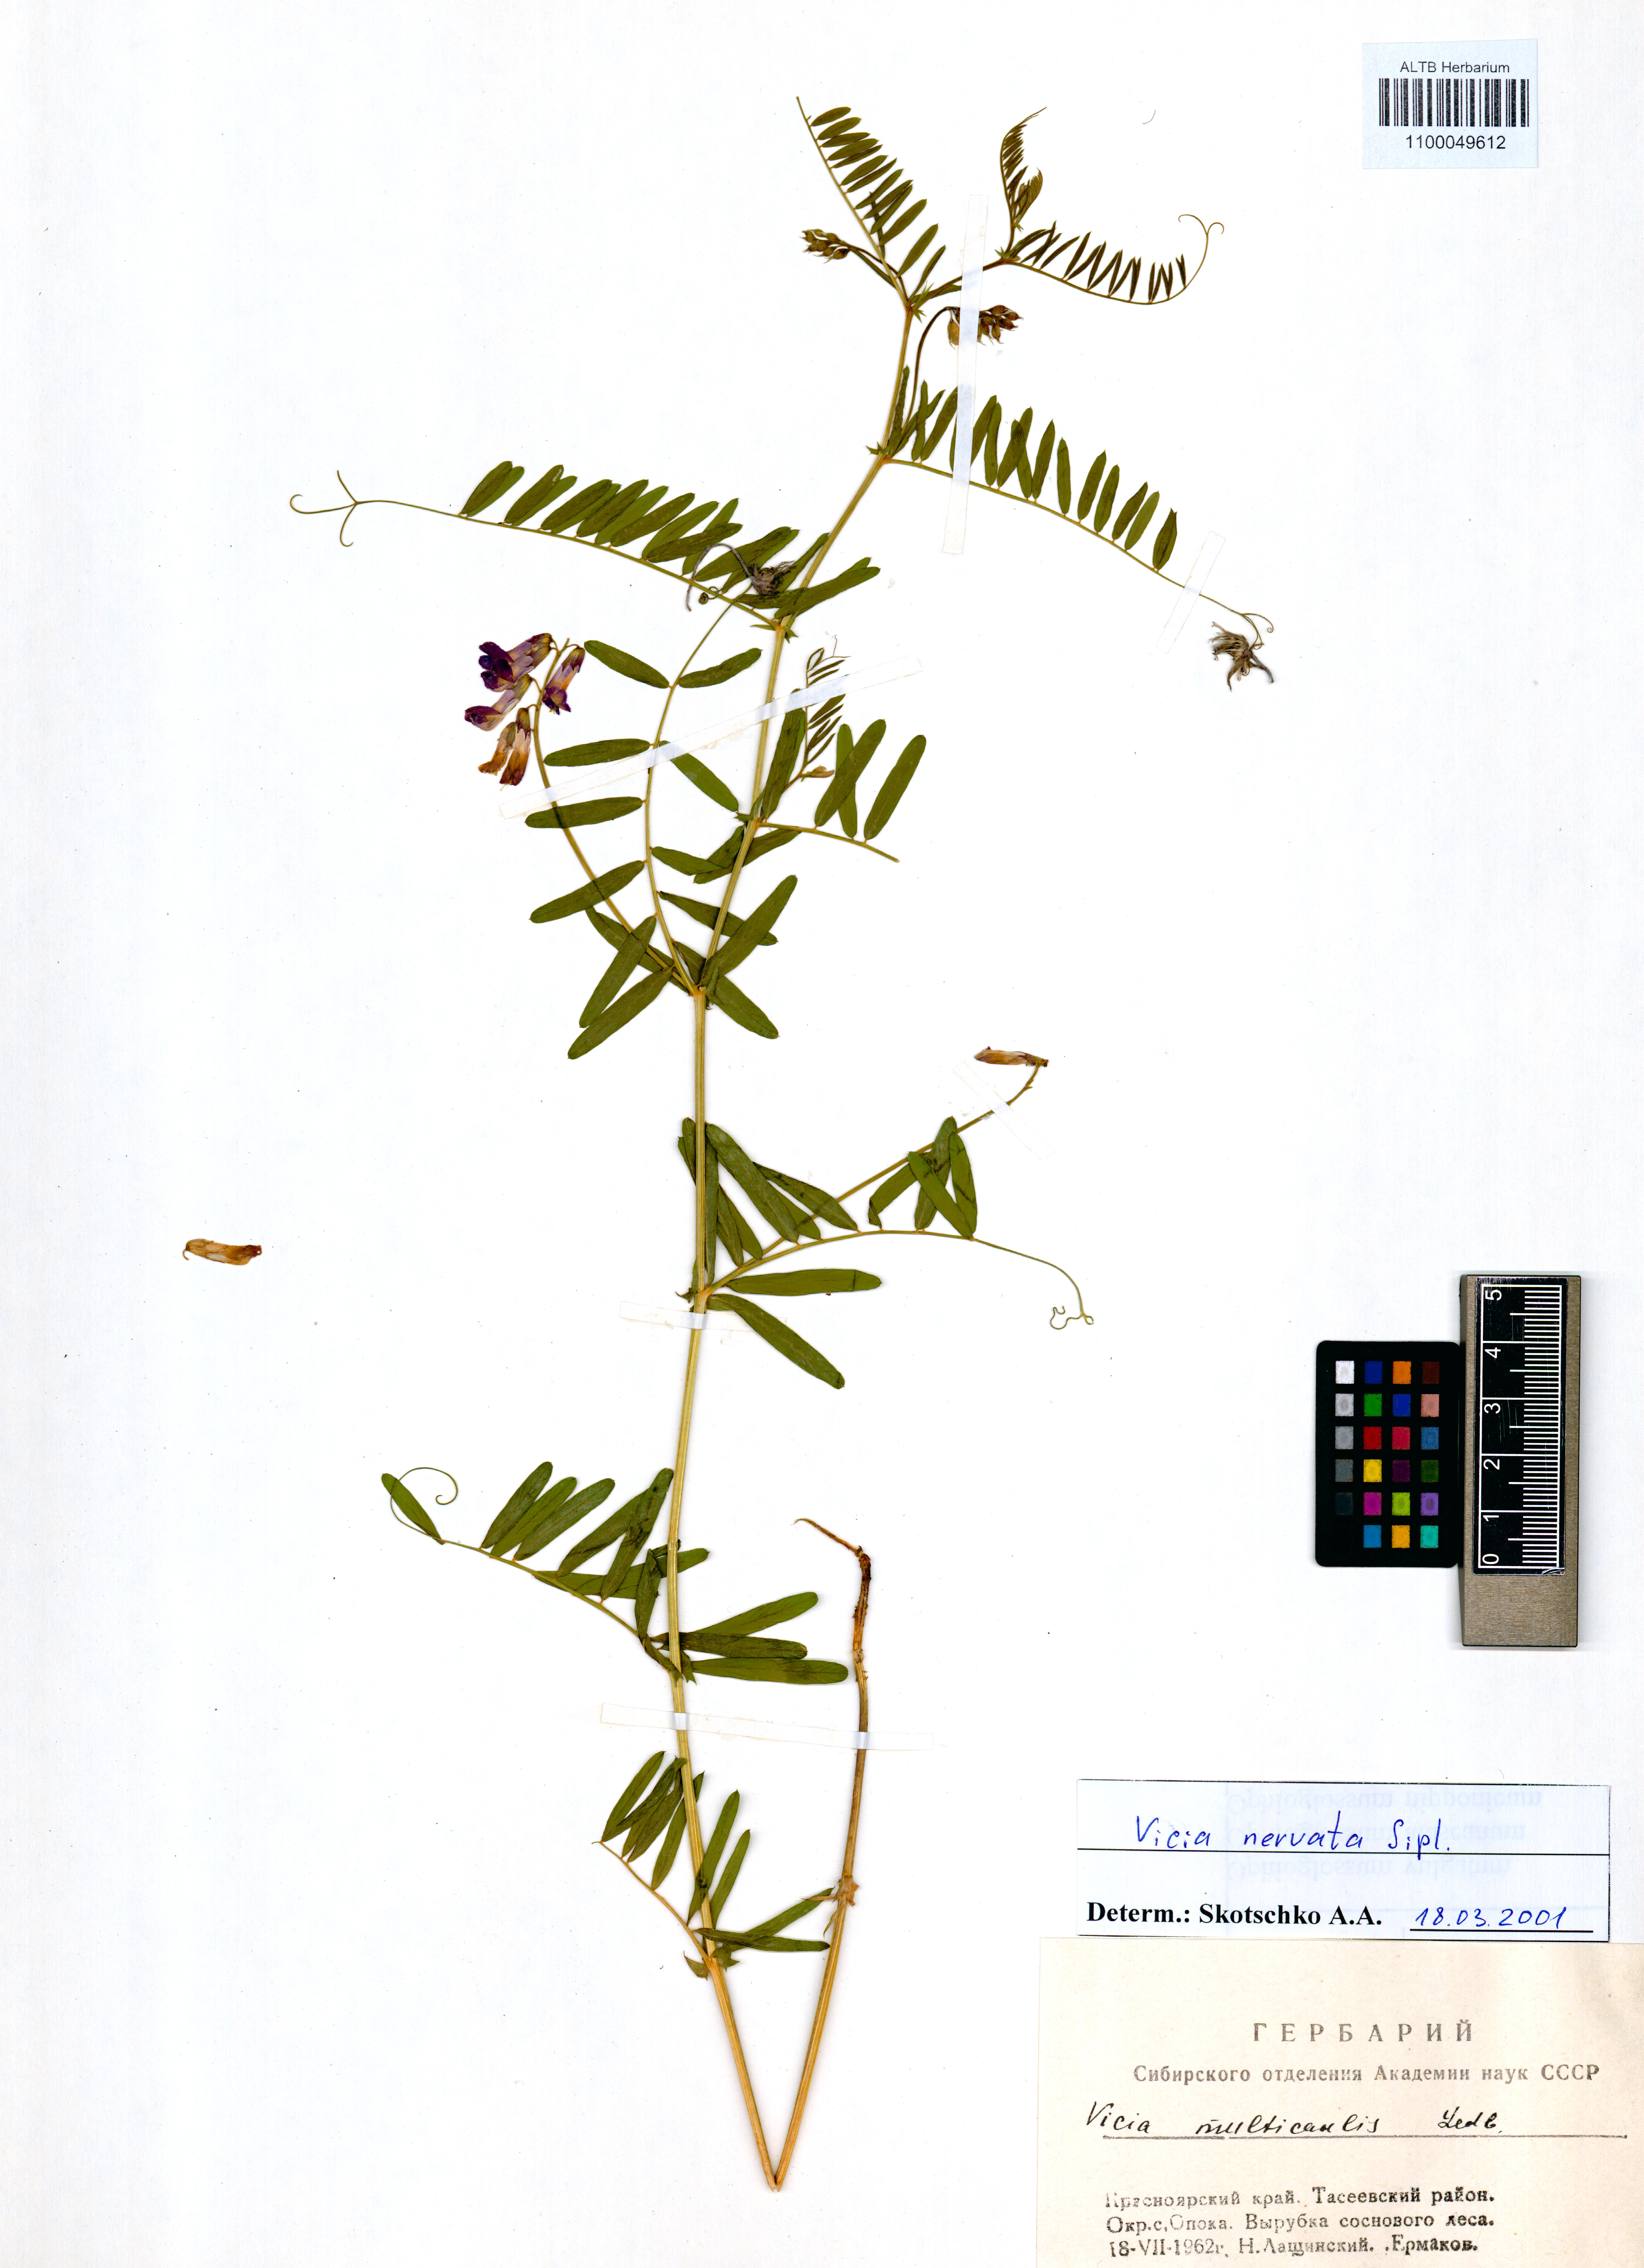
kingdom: Plantae
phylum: Tracheophyta
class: Magnoliopsida
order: Fabales
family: Fabaceae
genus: Vicia
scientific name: Vicia multicaulis
